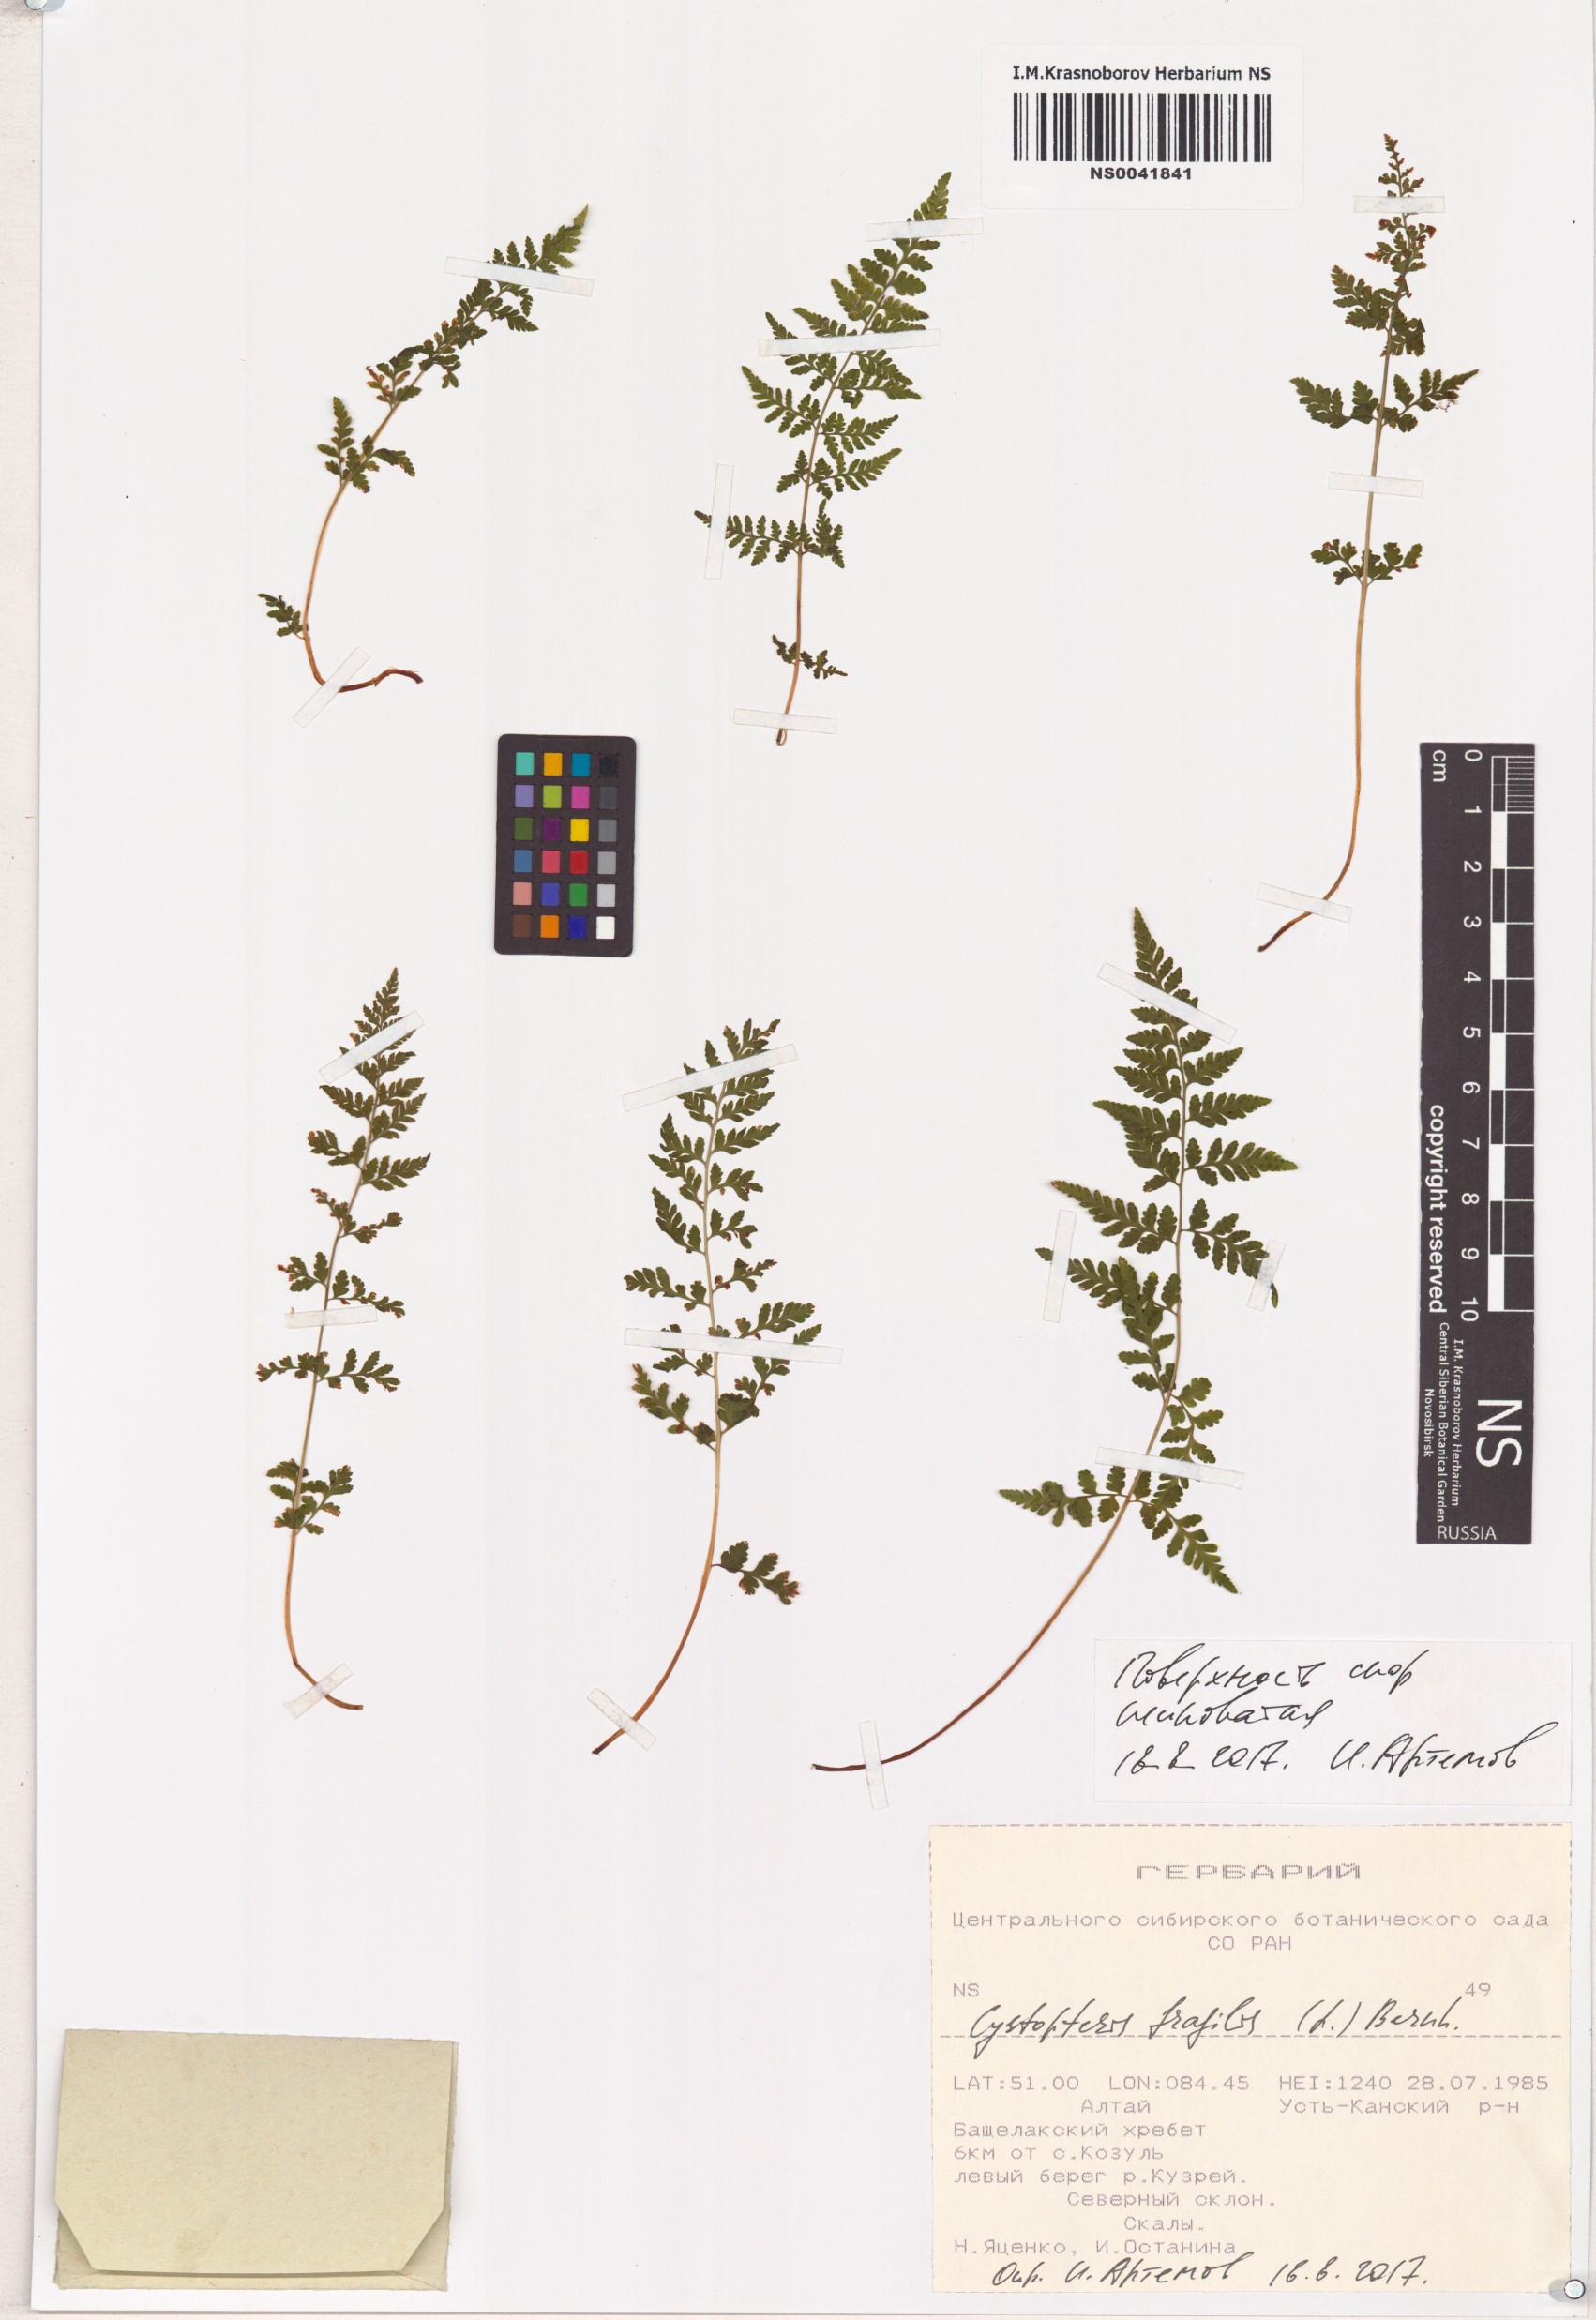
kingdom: Plantae
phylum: Tracheophyta
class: Polypodiopsida
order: Polypodiales
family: Cystopteridaceae
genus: Cystopteris
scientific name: Cystopteris fragilis
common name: Brittle bladder fern
